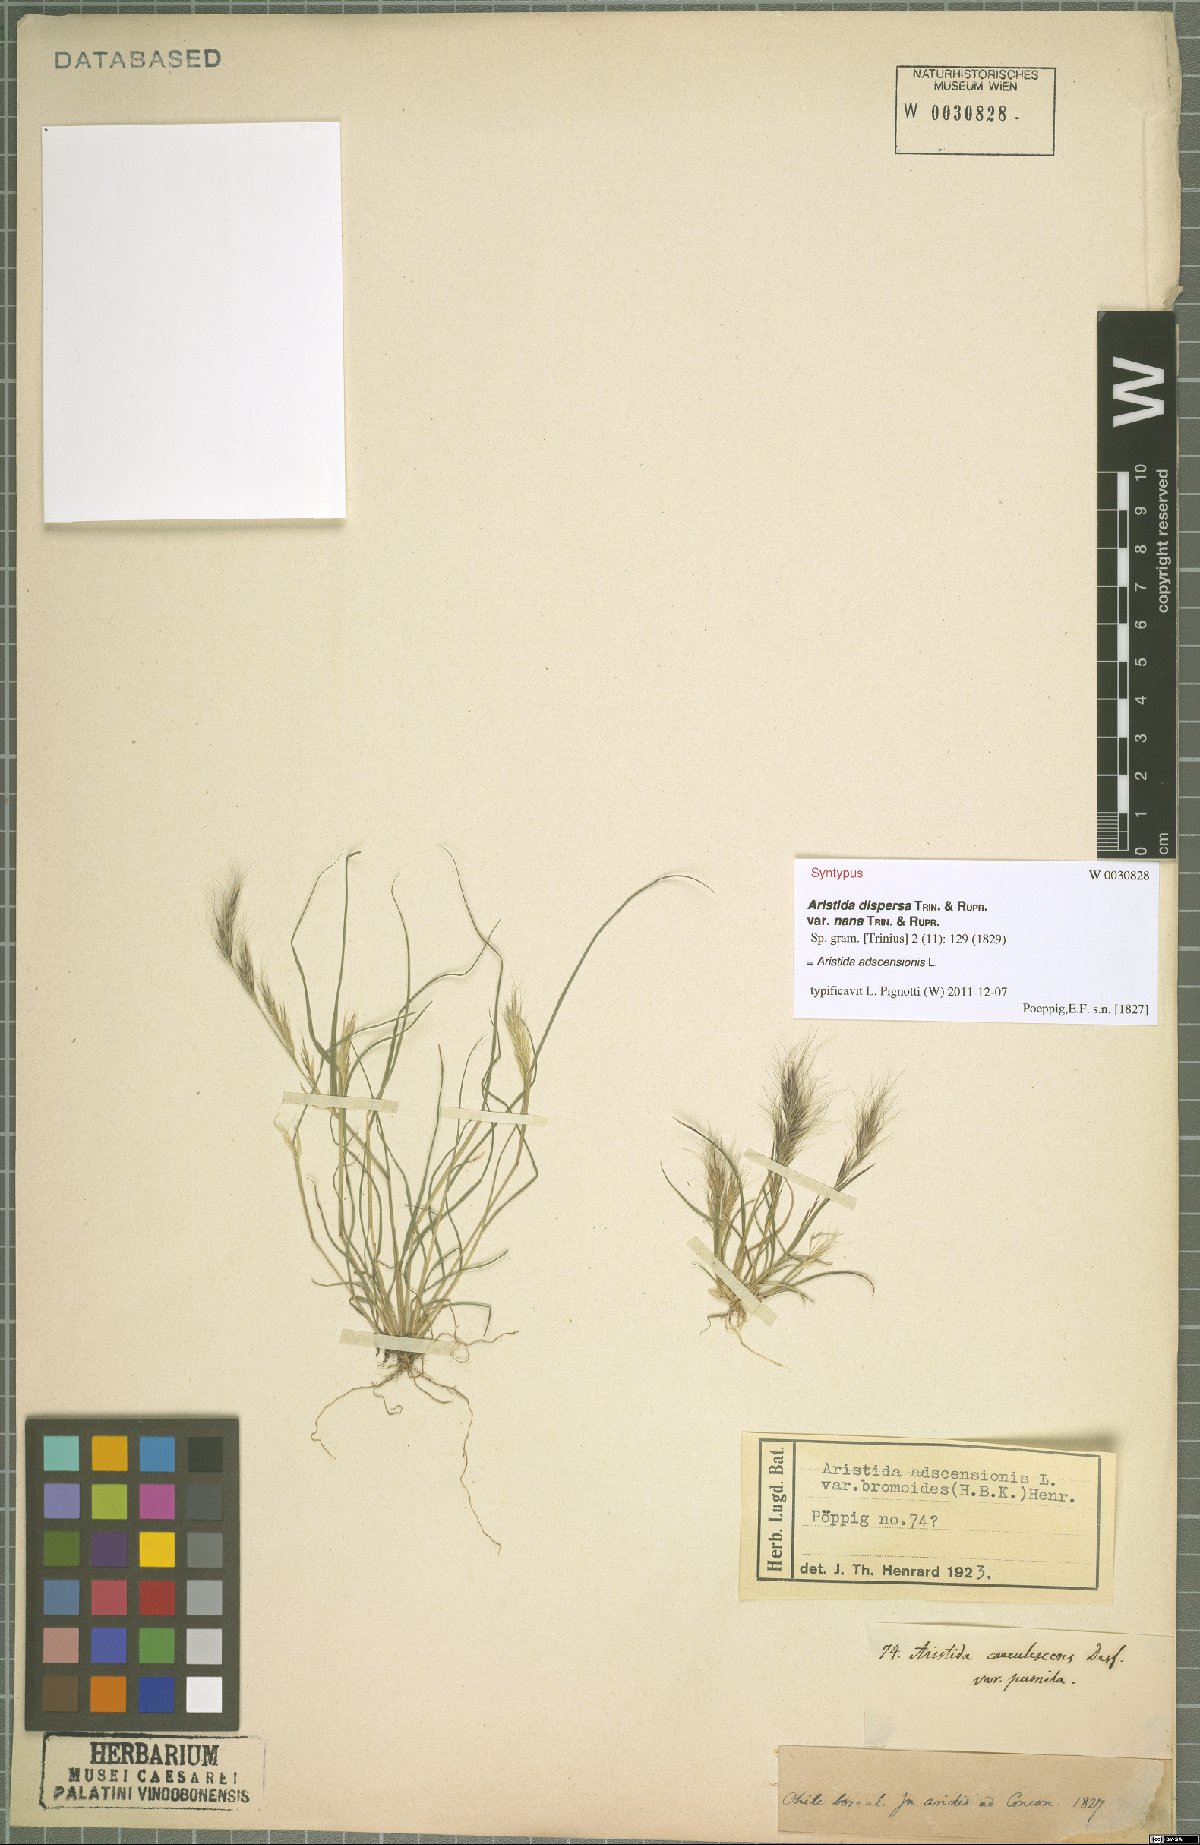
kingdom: Plantae
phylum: Tracheophyta
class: Liliopsida
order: Poales
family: Poaceae
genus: Aristida
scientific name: Aristida adscensionis
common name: Sixweeks threeawn
